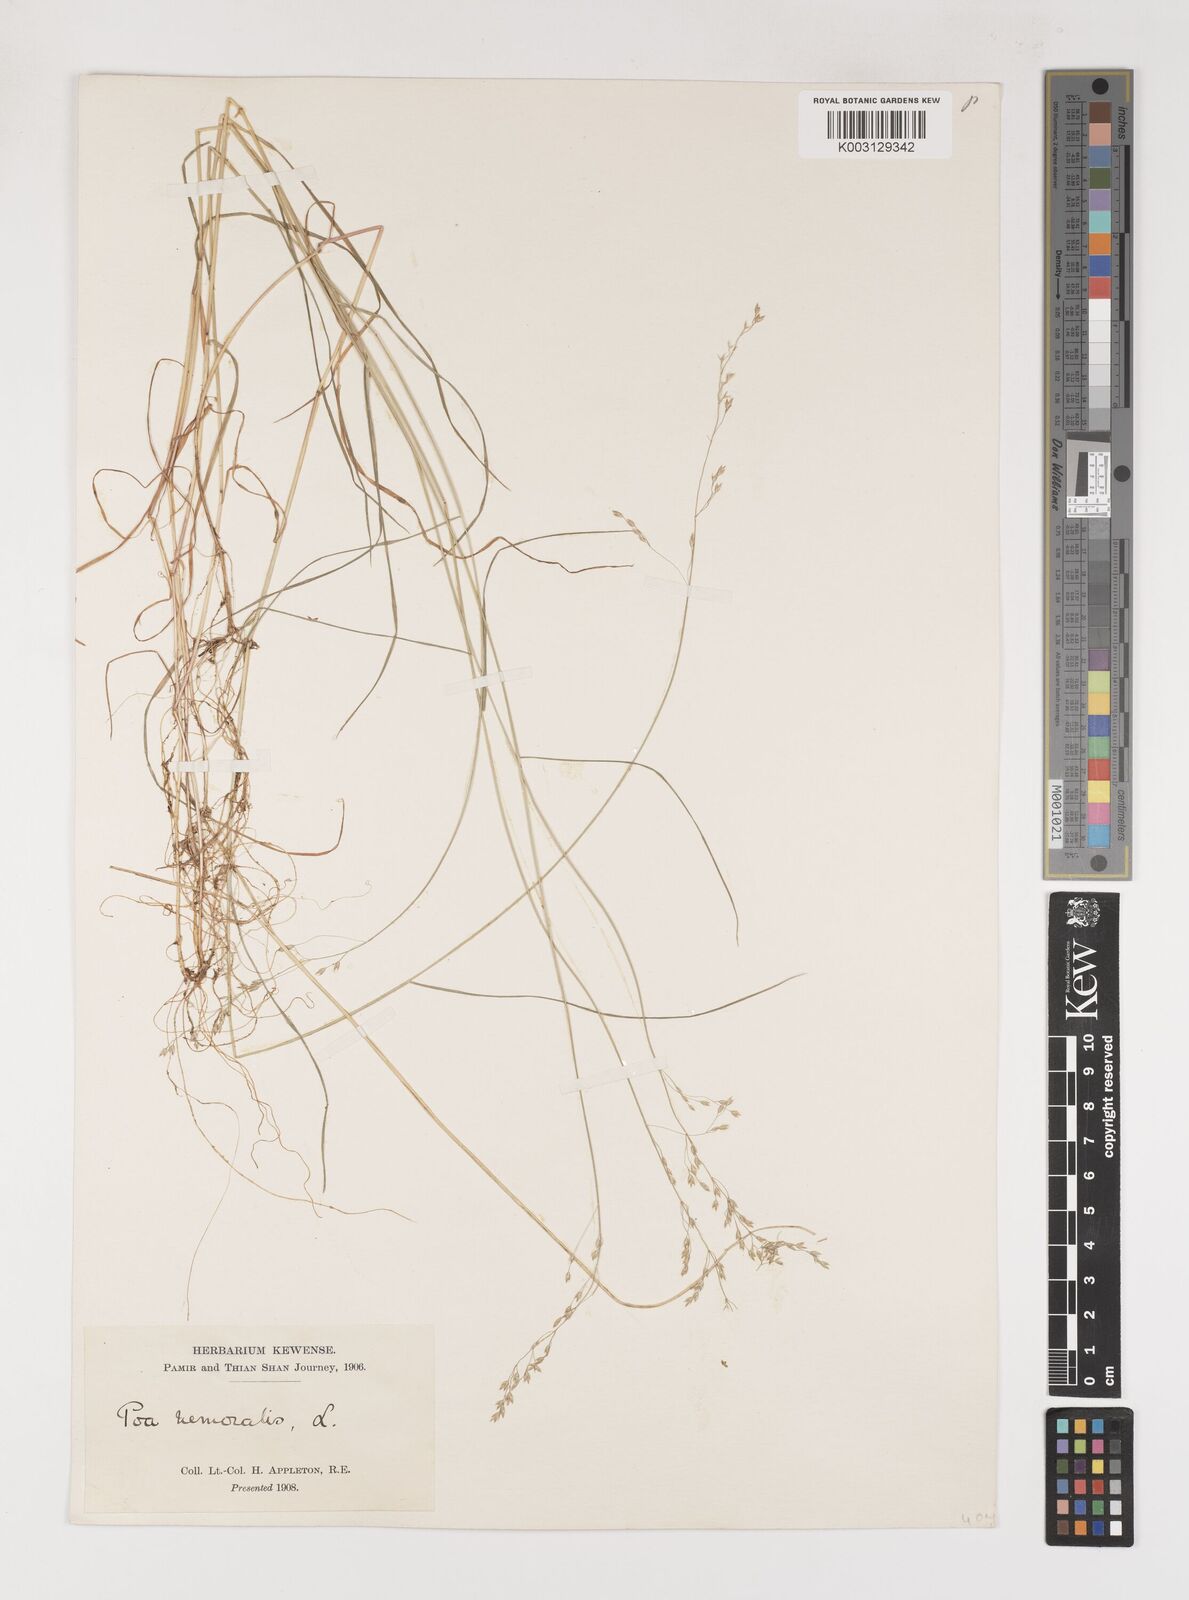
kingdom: Plantae
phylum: Tracheophyta
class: Liliopsida
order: Poales
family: Poaceae
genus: Poa
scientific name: Poa nemoralis
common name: Wood bluegrass
